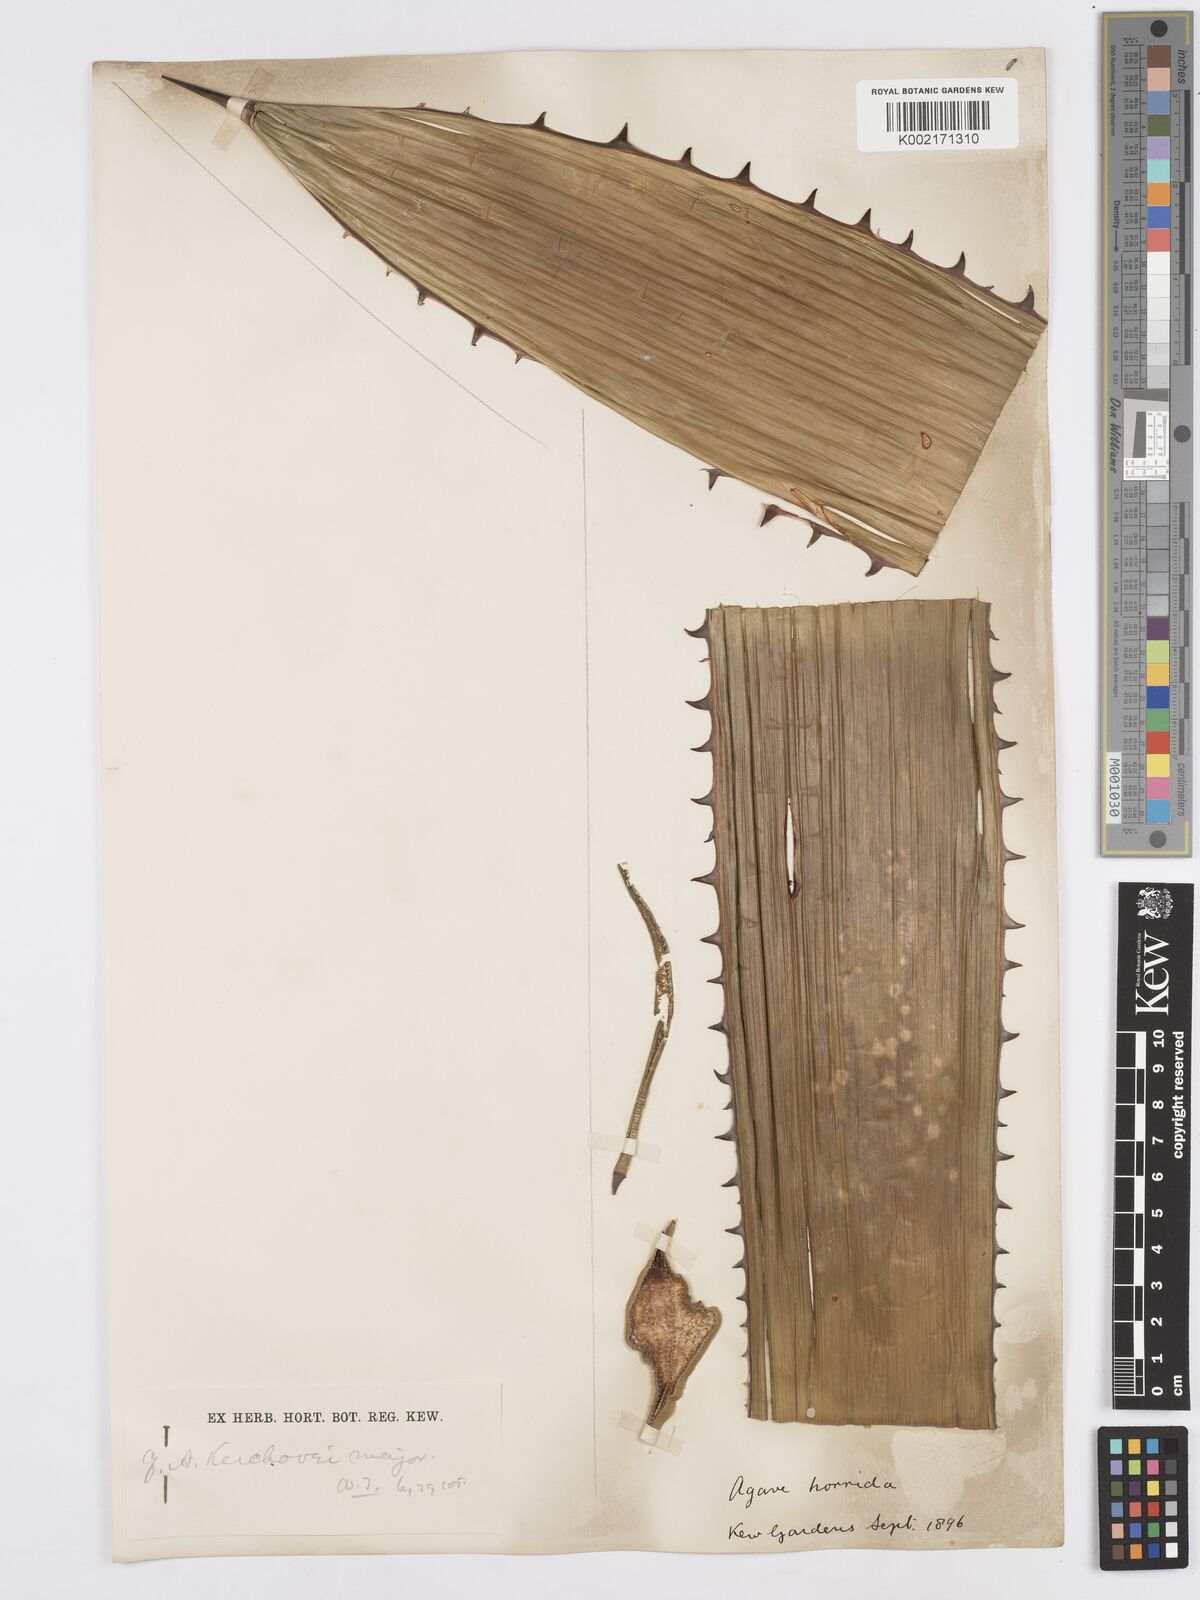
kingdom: Plantae
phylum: Tracheophyta
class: Liliopsida
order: Asparagales
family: Asparagaceae
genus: Agave
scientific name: Agave horrida
